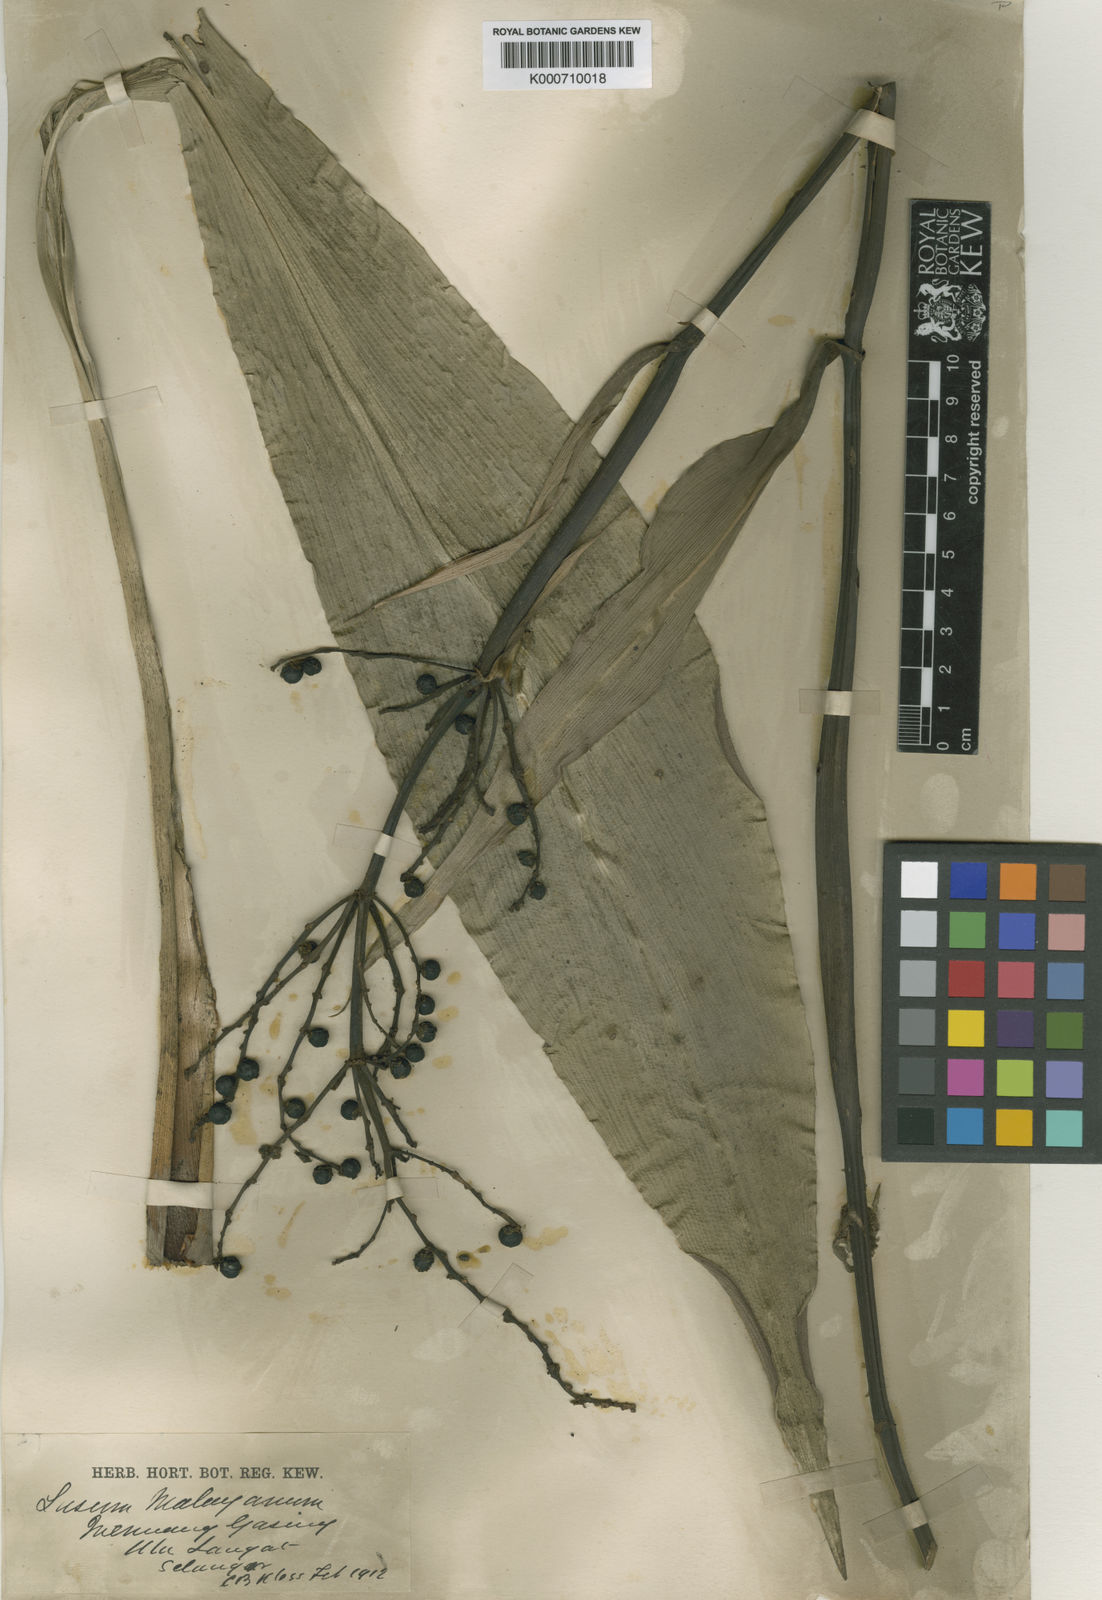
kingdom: Plantae
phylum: Tracheophyta
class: Liliopsida
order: Commelinales
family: Hanguanaceae
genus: Hanguana
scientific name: Hanguana malayana
